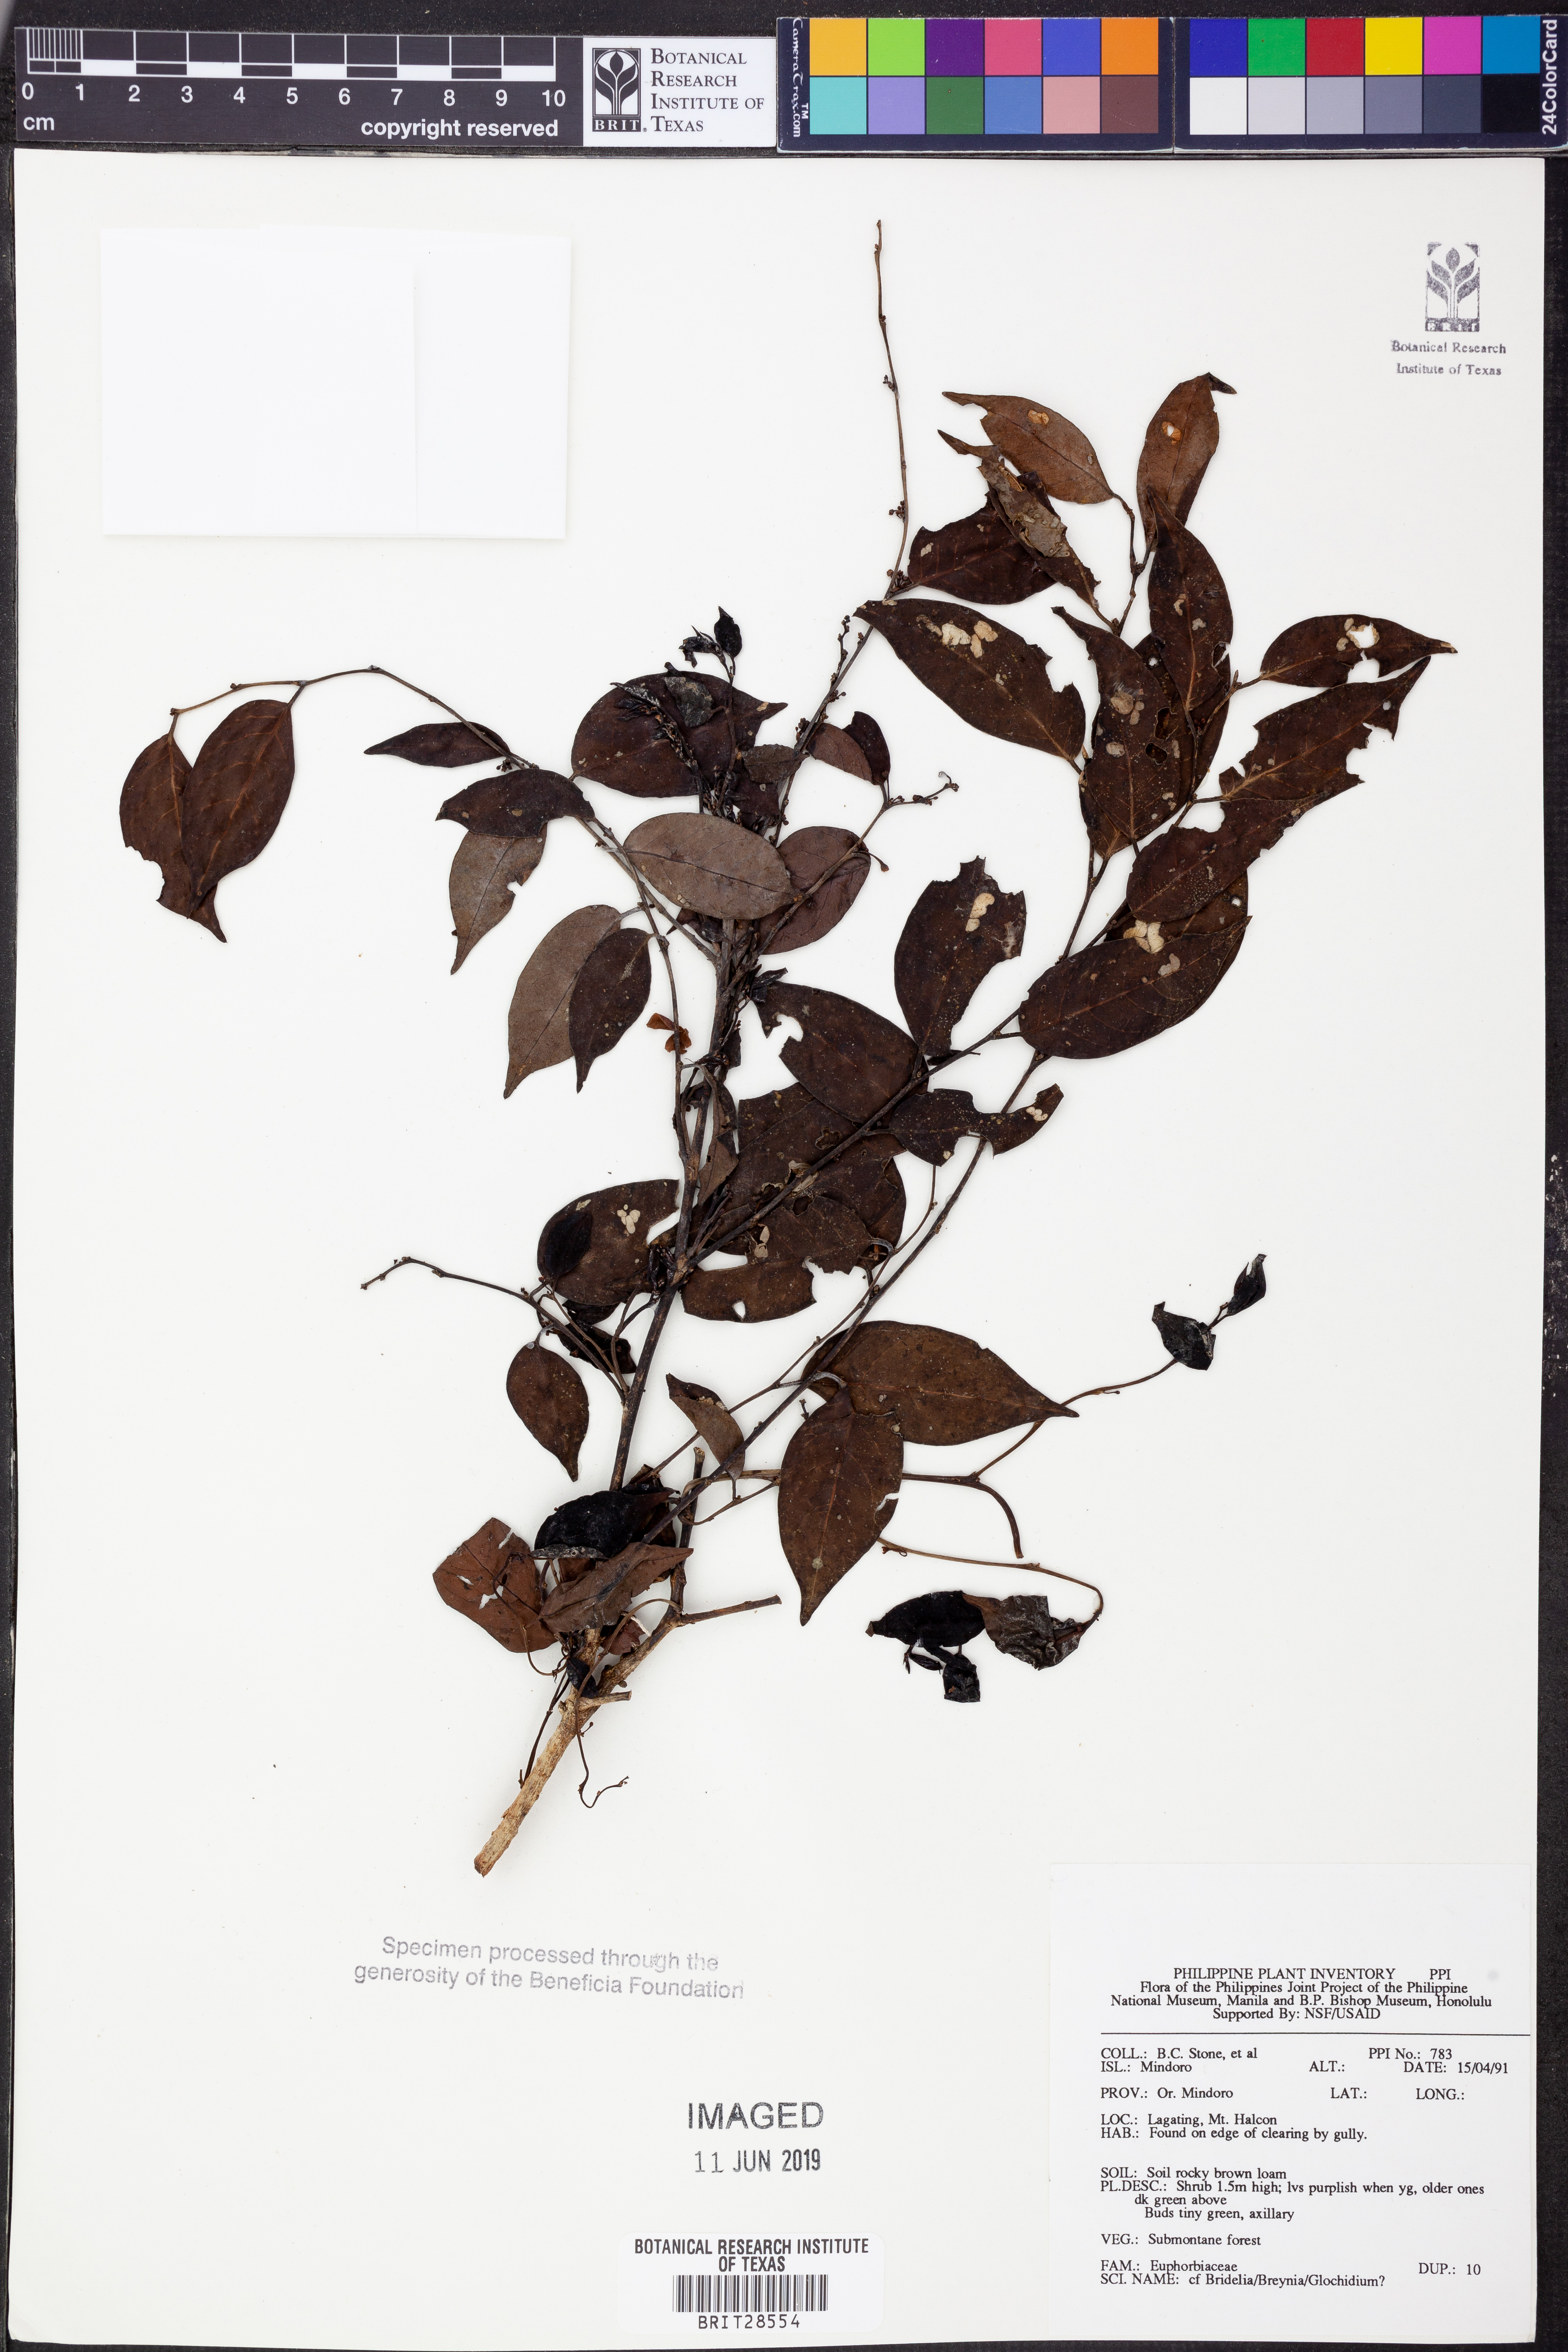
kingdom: Plantae
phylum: Tracheophyta
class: Magnoliopsida
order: Malpighiales
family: Euphorbiaceae
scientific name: Euphorbiaceae
